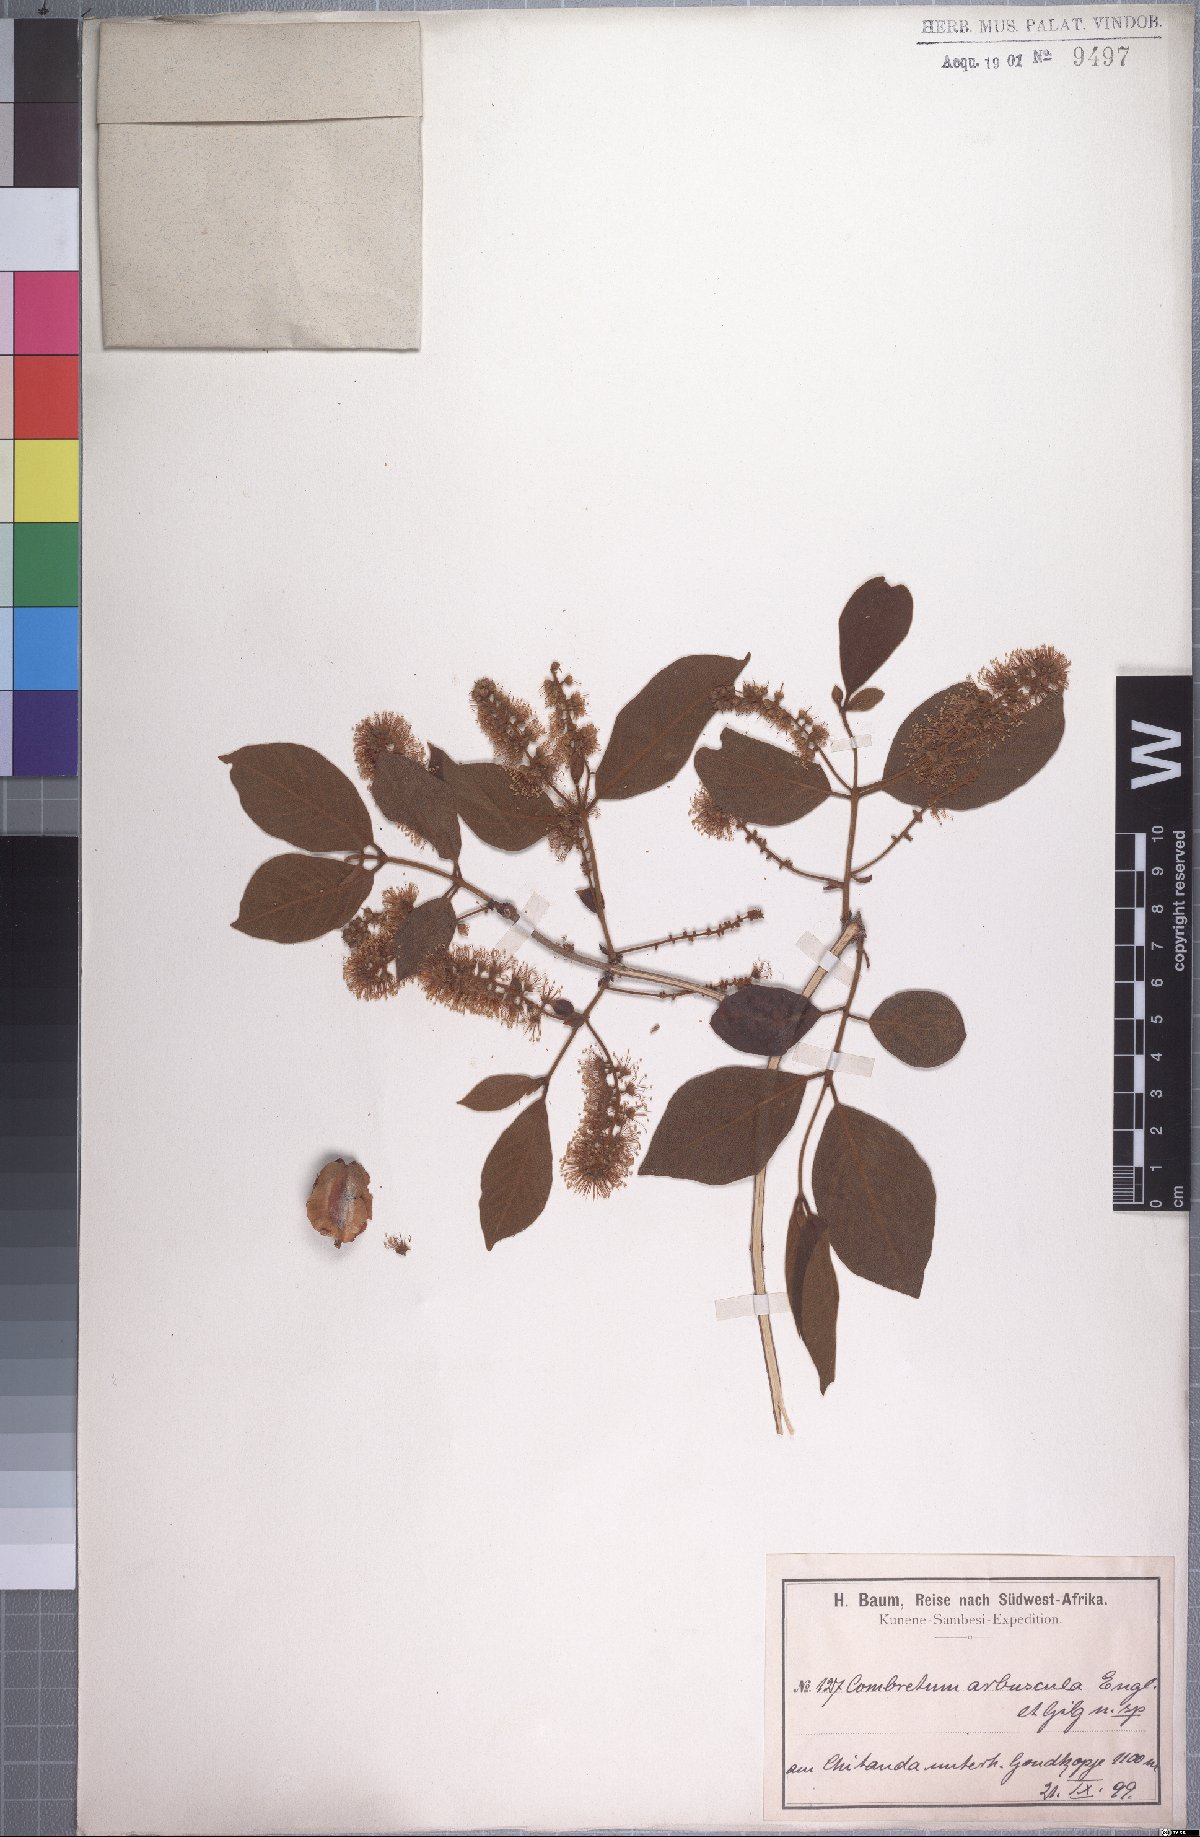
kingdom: Plantae
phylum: Tracheophyta
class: Magnoliopsida
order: Myrtales
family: Combretaceae
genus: Combretum
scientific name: Combretum molle
